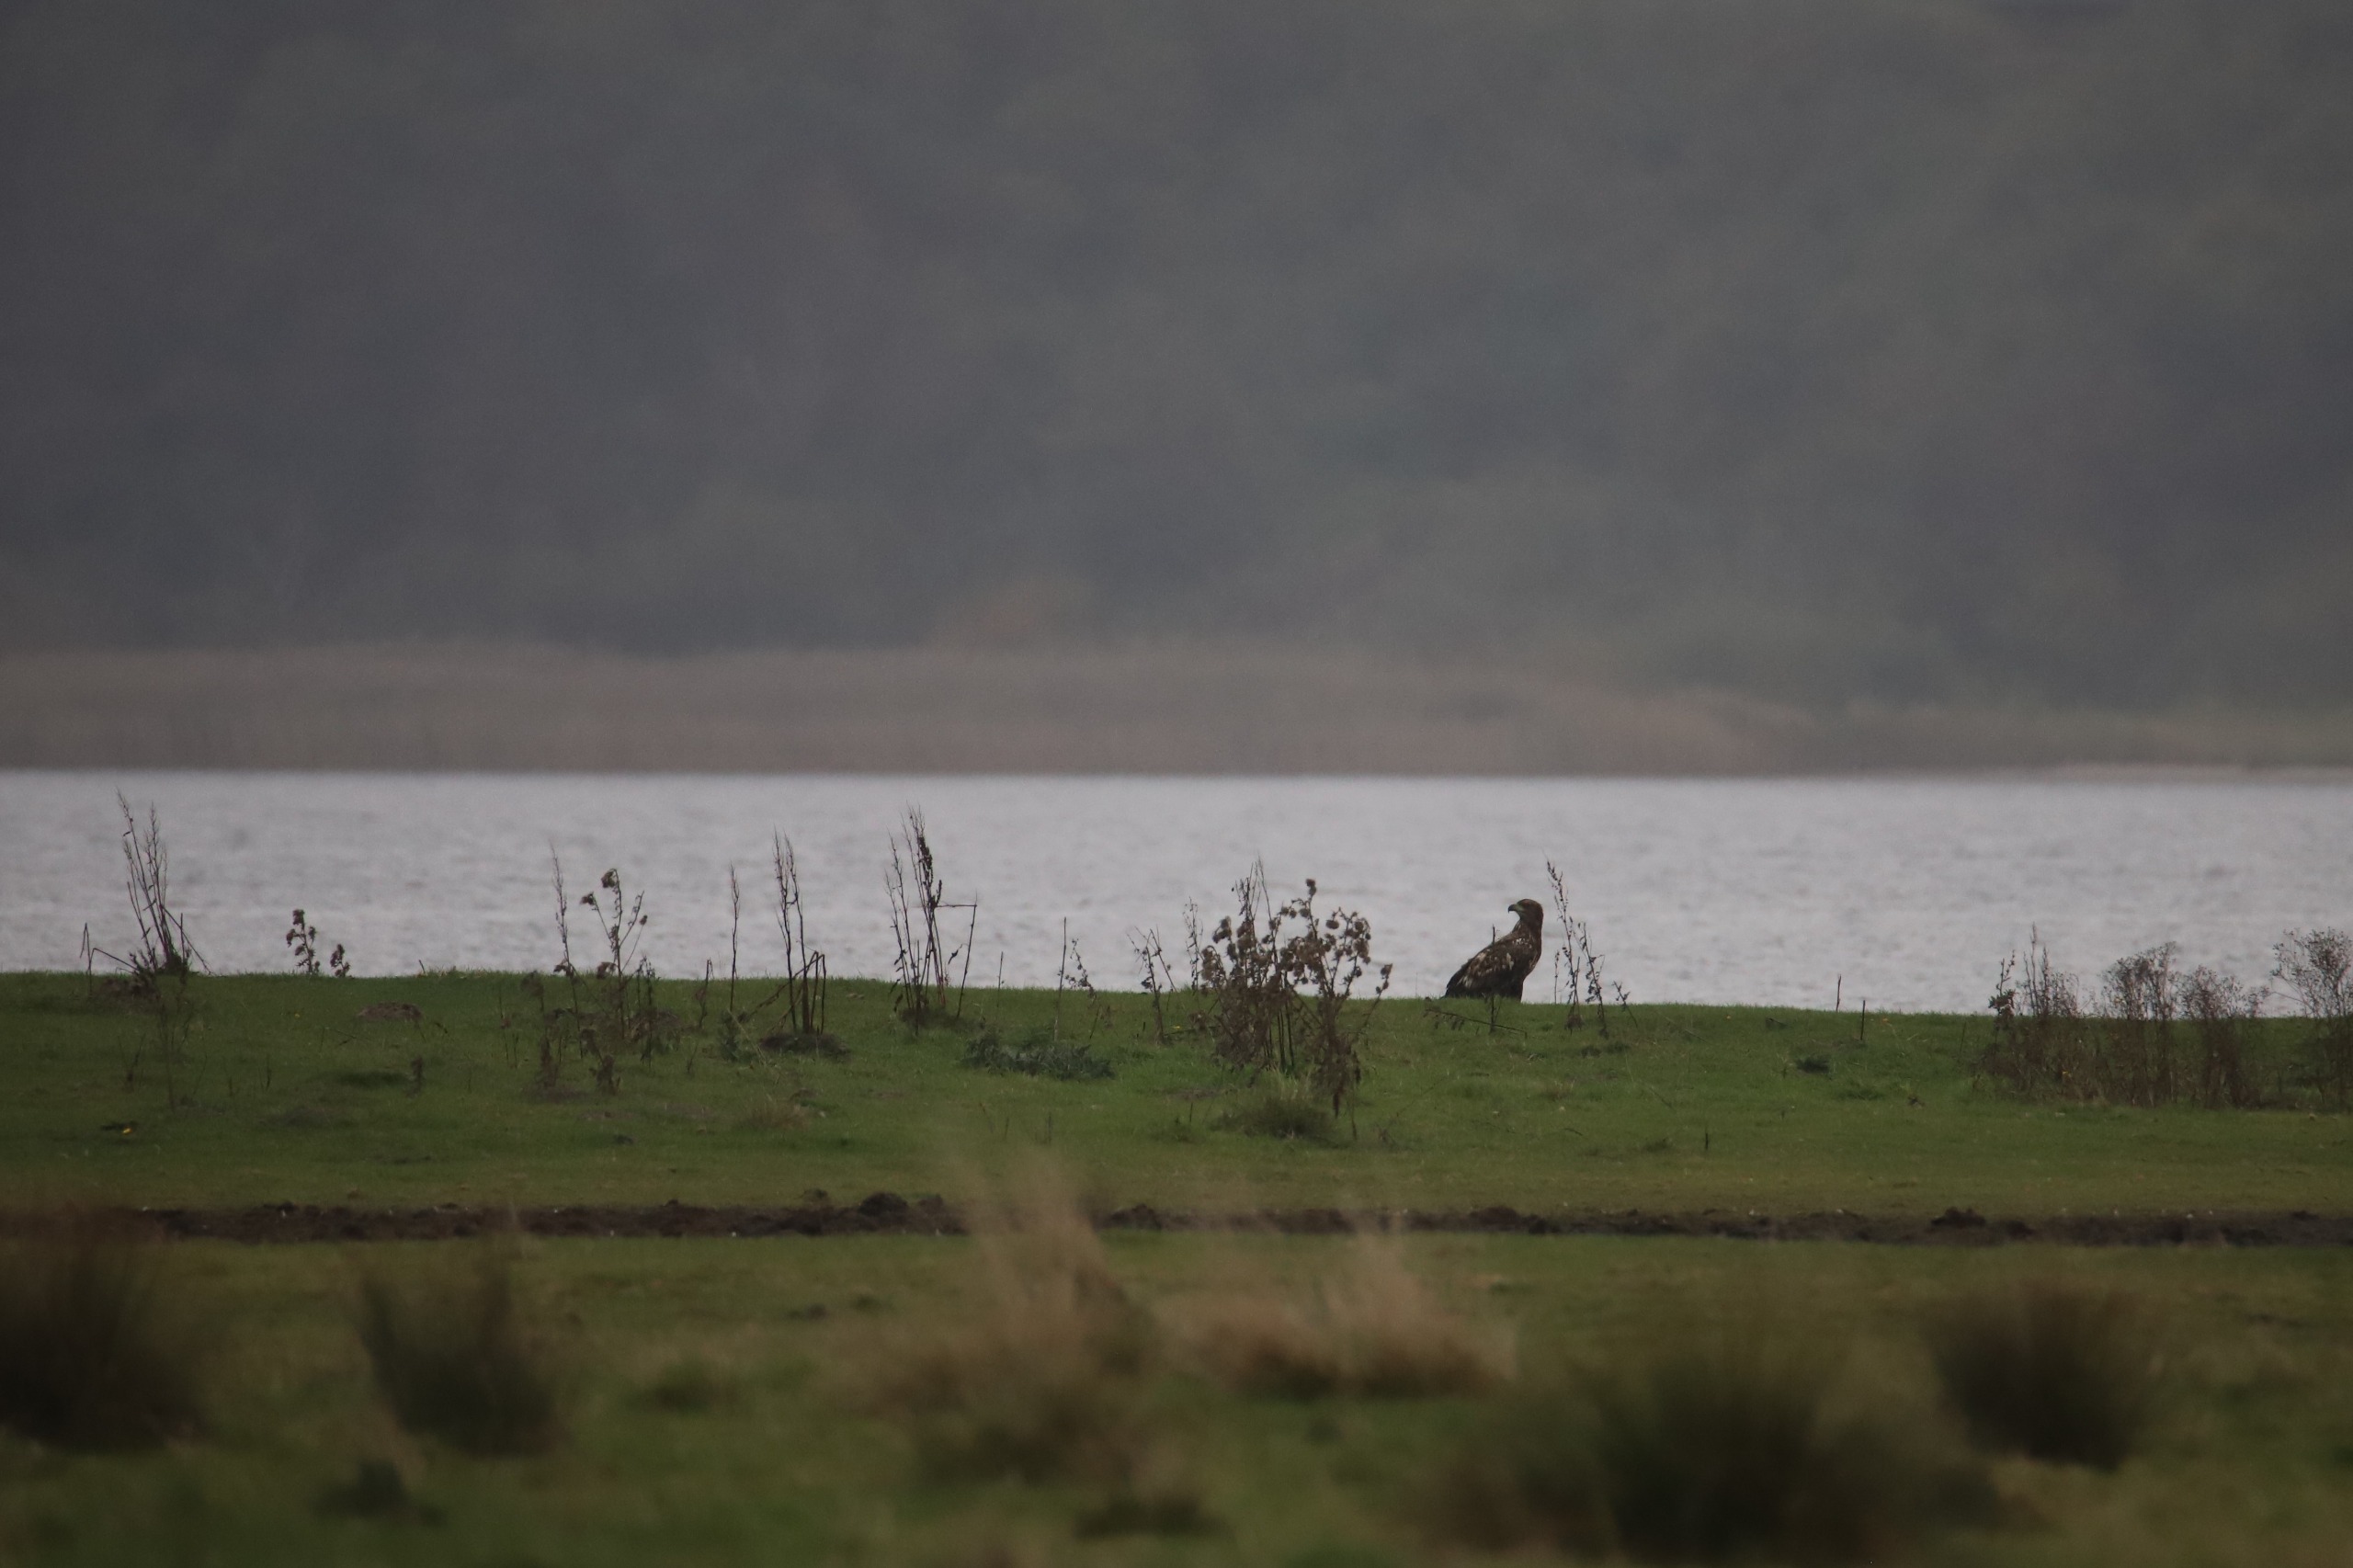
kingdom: Animalia
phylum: Chordata
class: Aves
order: Accipitriformes
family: Accipitridae
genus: Haliaeetus
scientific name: Haliaeetus albicilla
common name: Havørn
